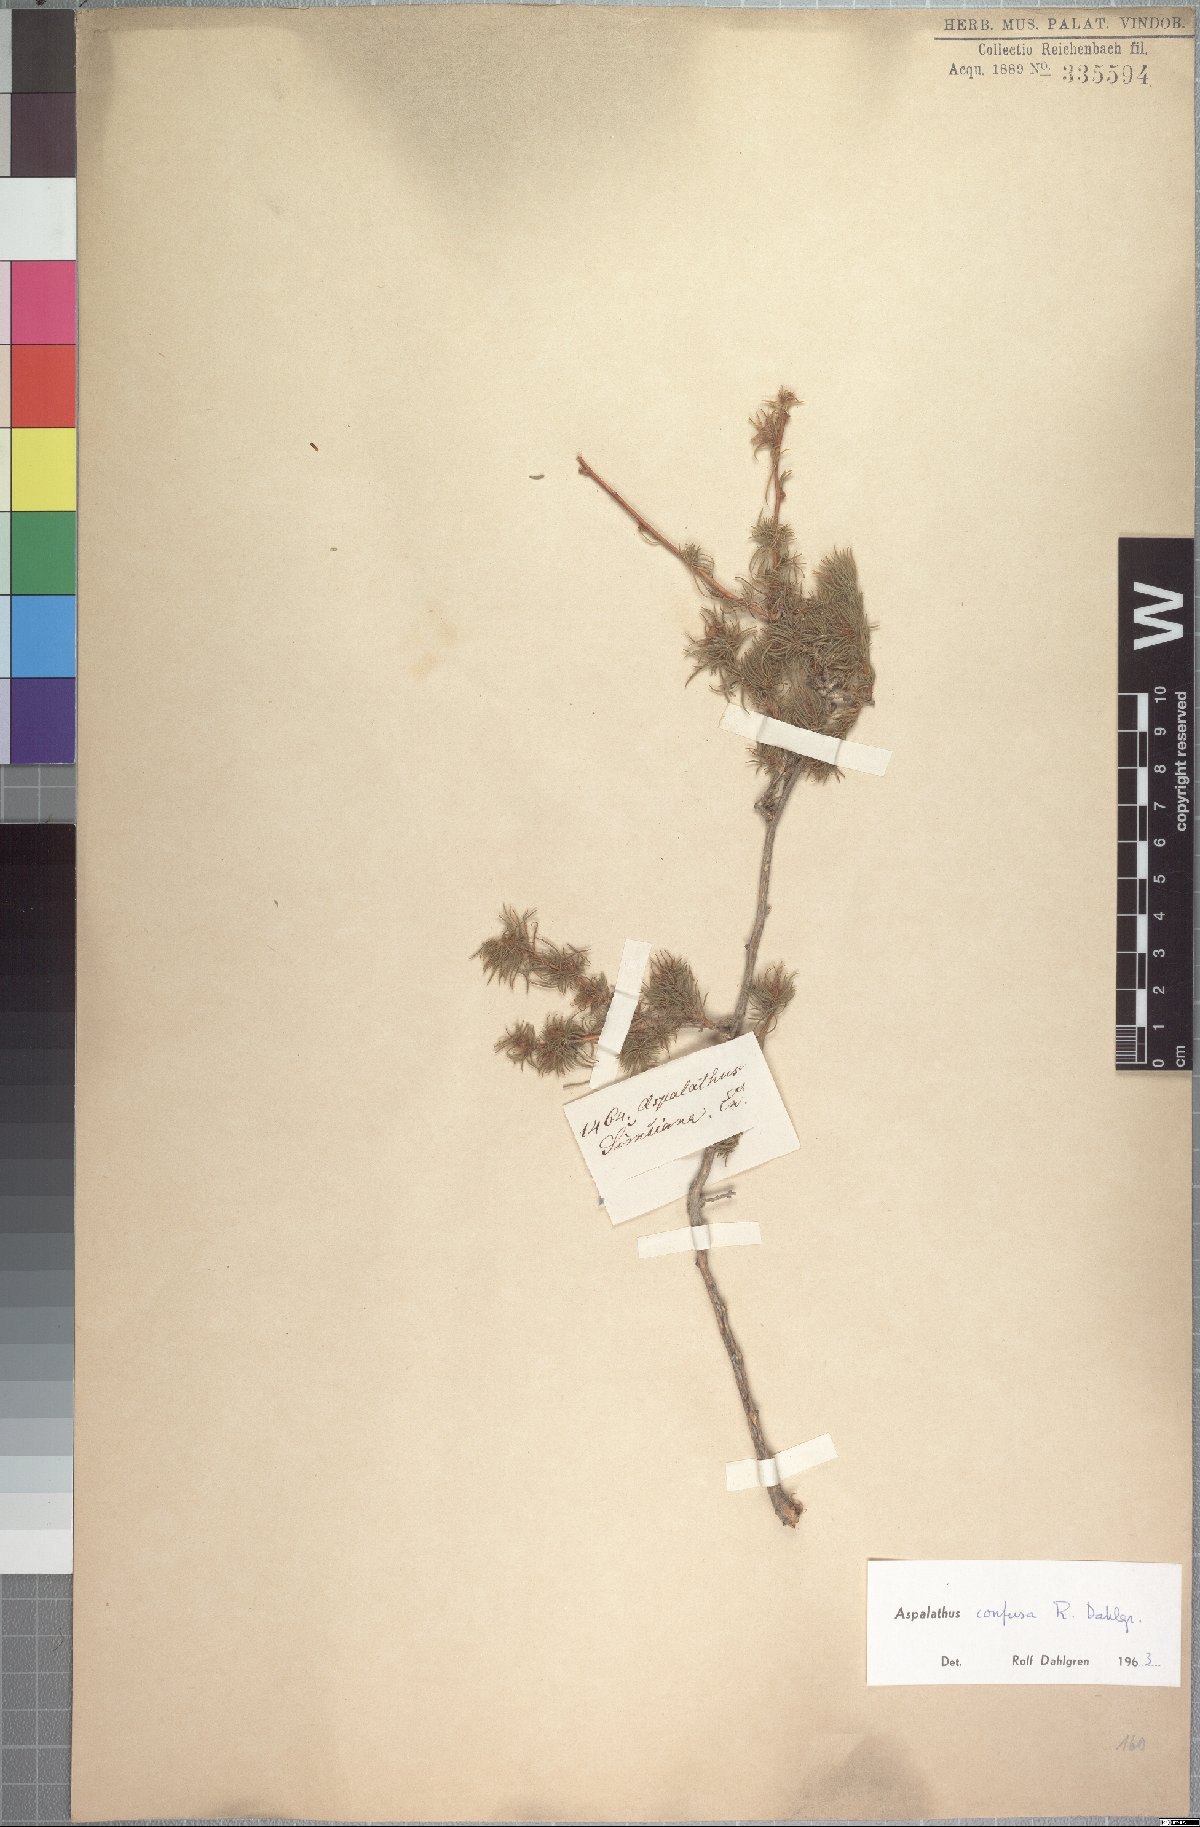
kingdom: Plantae
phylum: Tracheophyta
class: Magnoliopsida
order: Fabales
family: Fabaceae
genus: Aspalathus
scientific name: Aspalathus confusa
